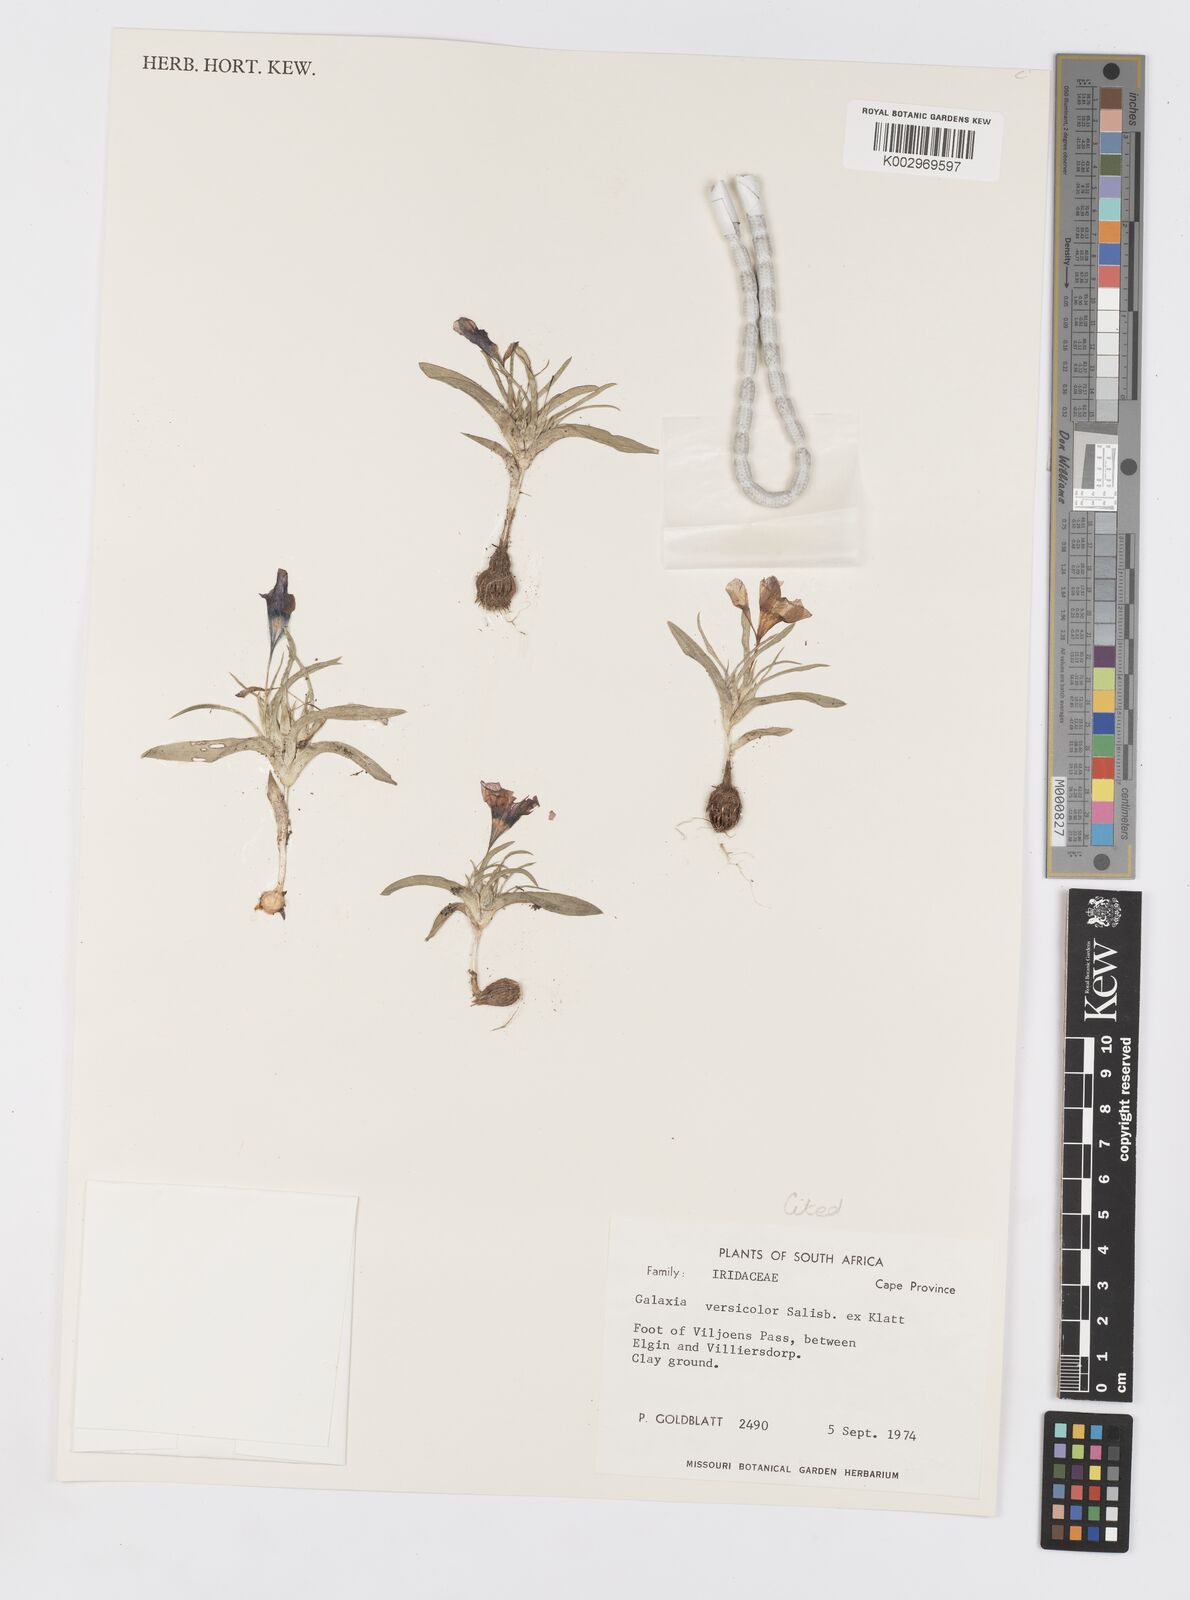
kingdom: Plantae
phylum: Tracheophyta
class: Liliopsida
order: Asparagales
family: Iridaceae
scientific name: Iridaceae
